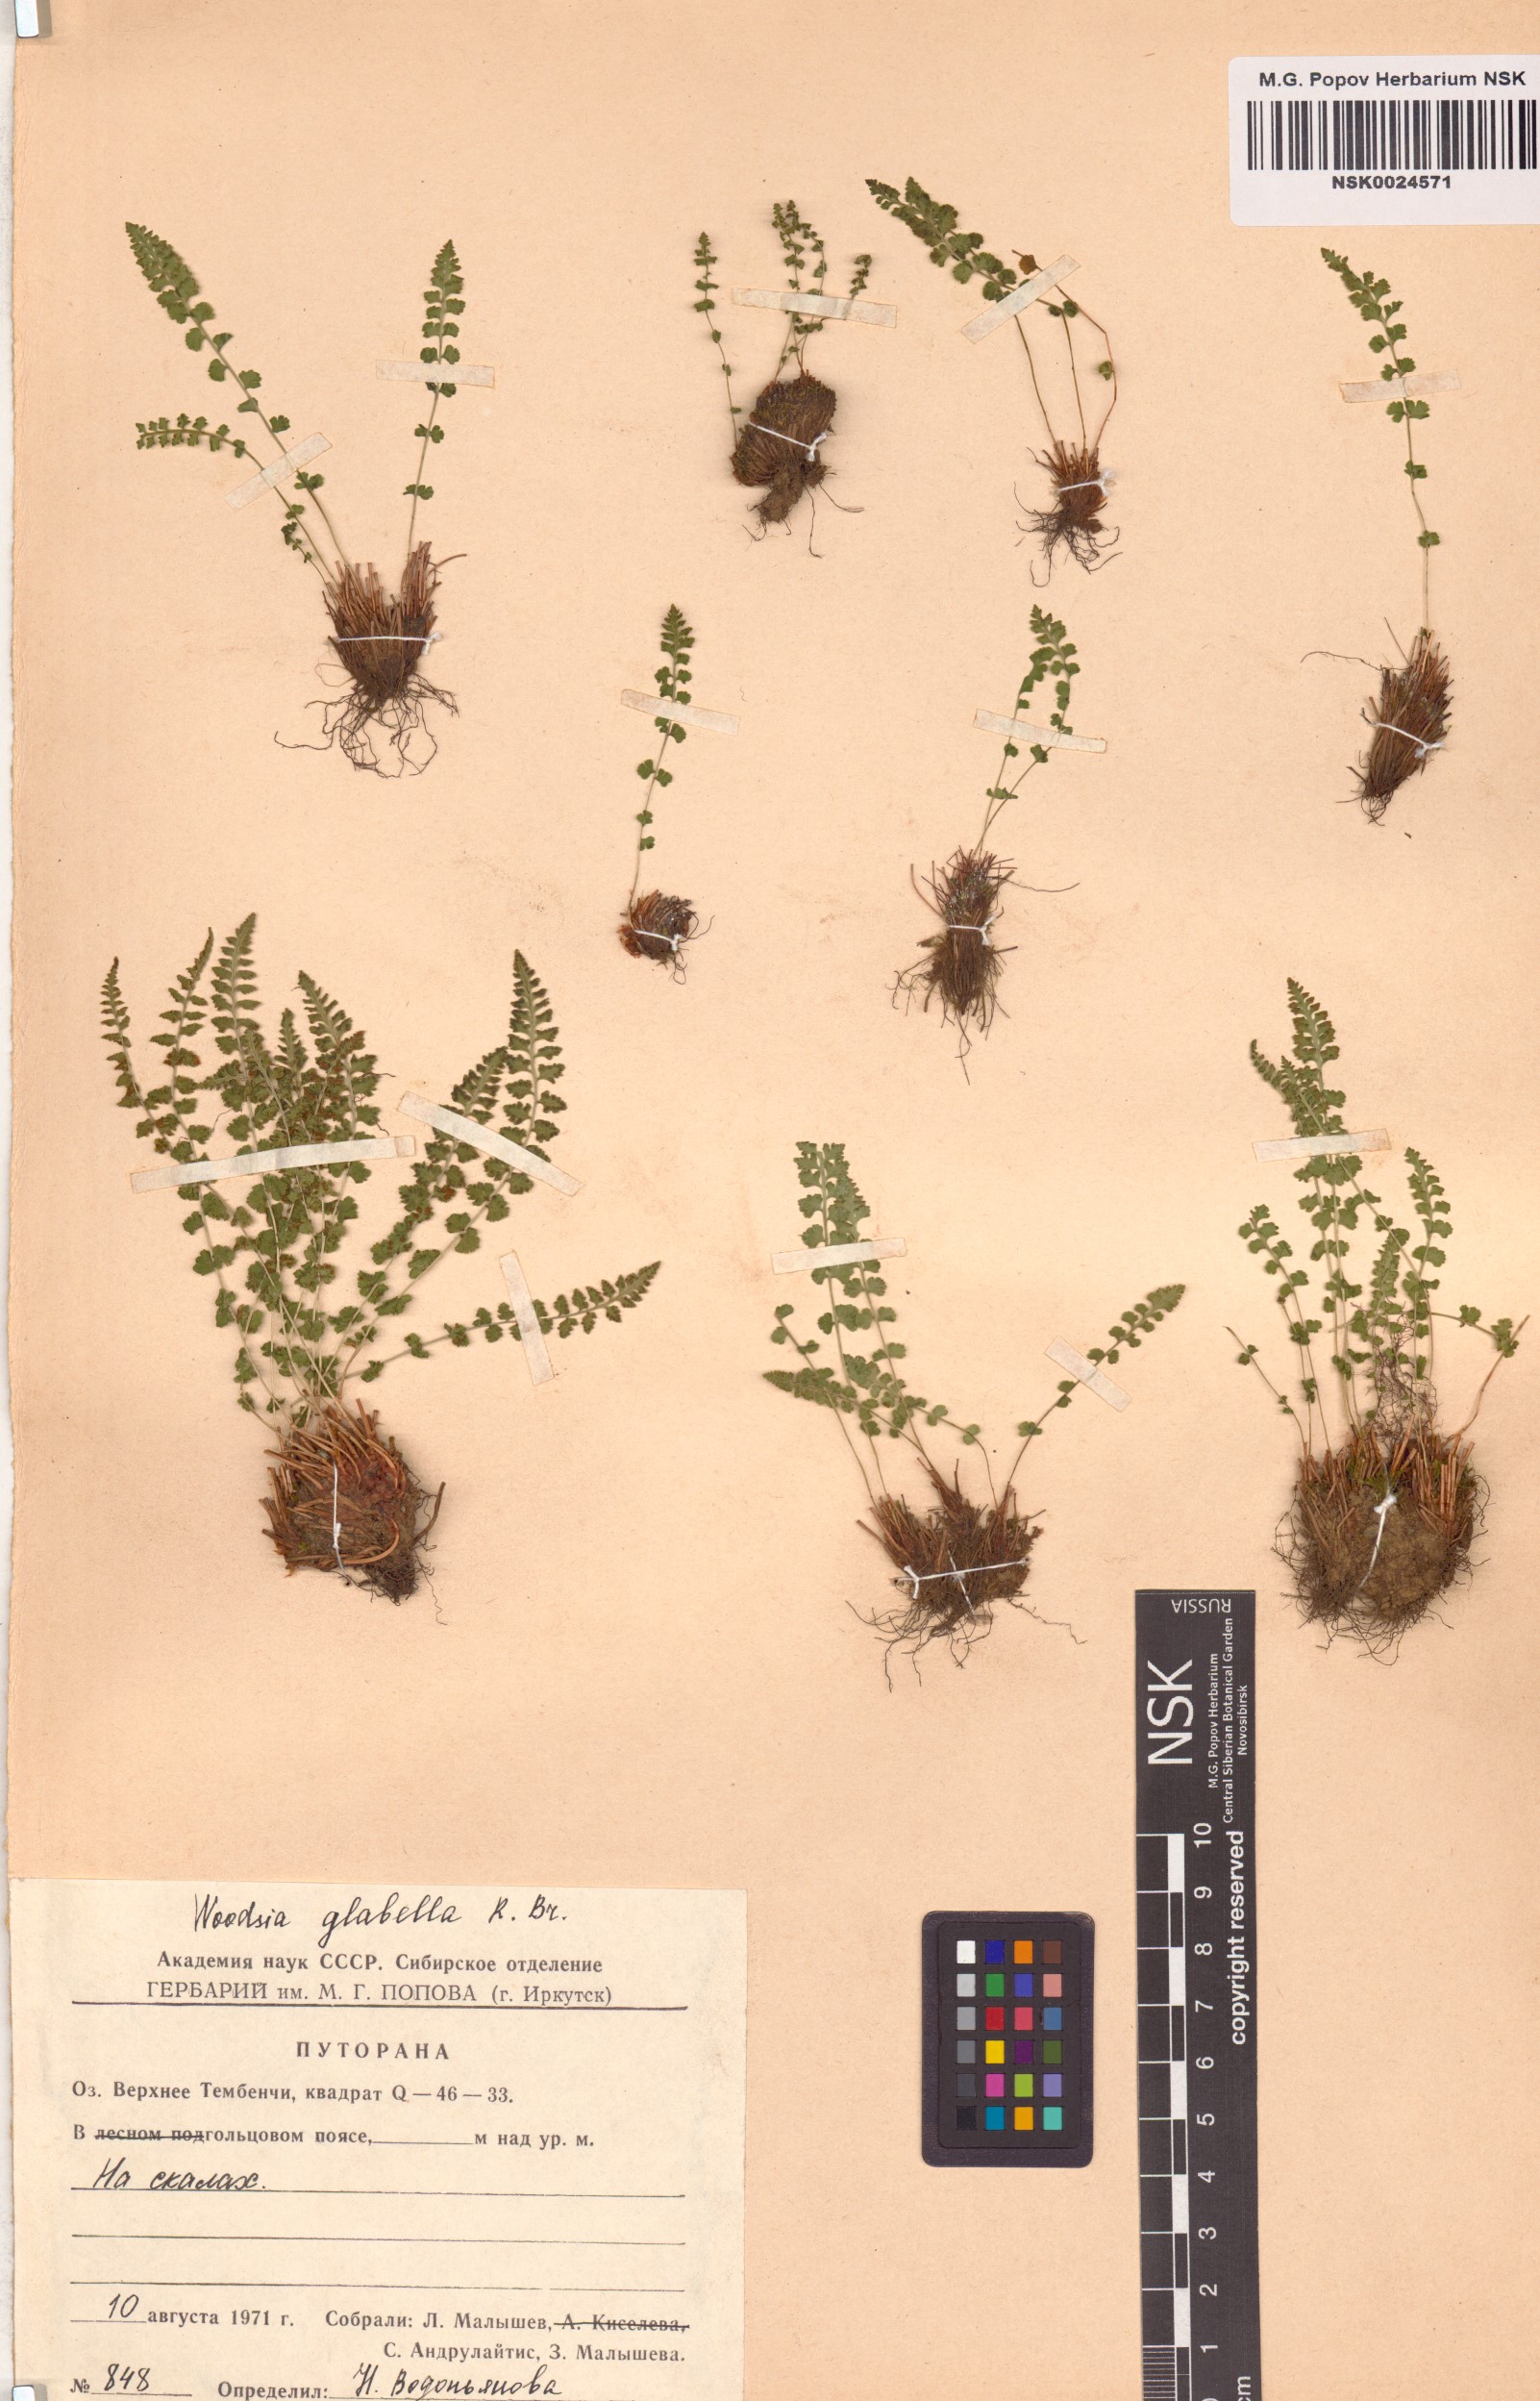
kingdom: Plantae
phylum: Tracheophyta
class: Polypodiopsida
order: Polypodiales
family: Woodsiaceae
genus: Woodsia
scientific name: Woodsia glabella
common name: Smooth woodsia
